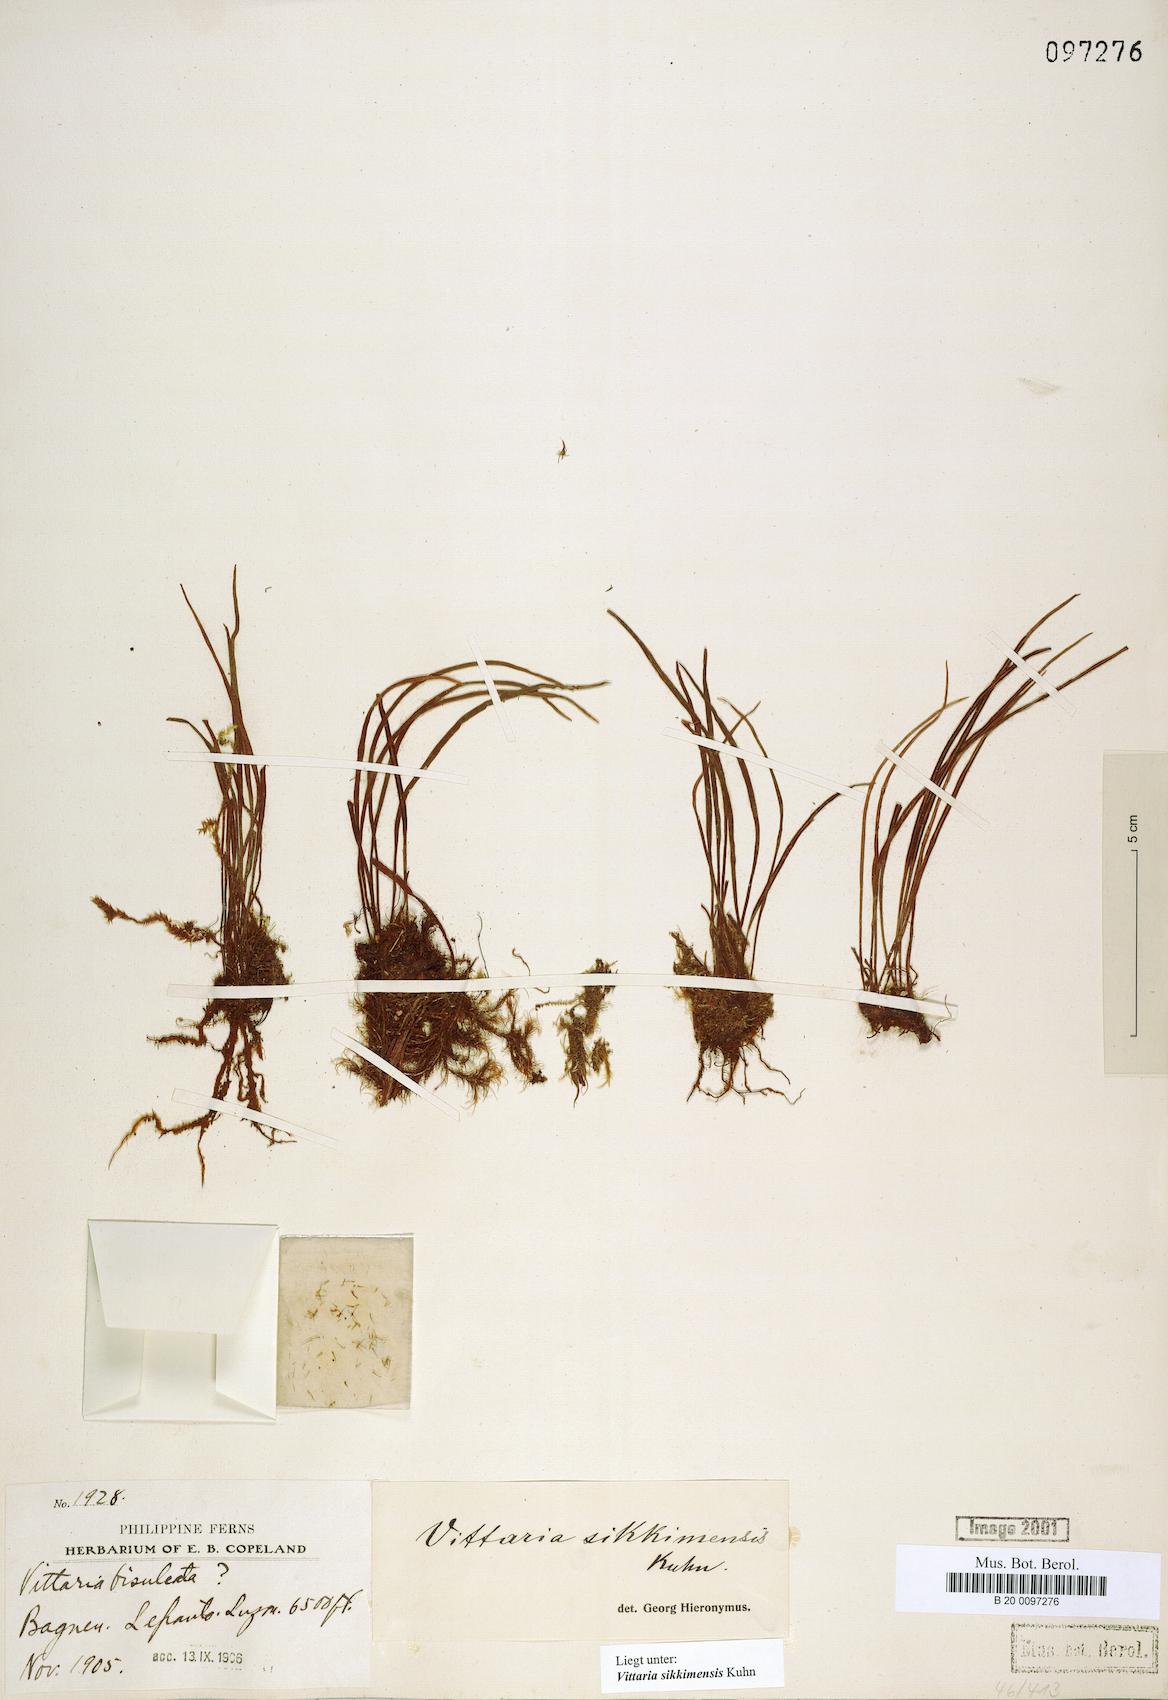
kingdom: Plantae
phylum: Tracheophyta
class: Polypodiopsida
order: Polypodiales
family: Pteridaceae
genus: Haplopteris
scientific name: Haplopteris mediosora
